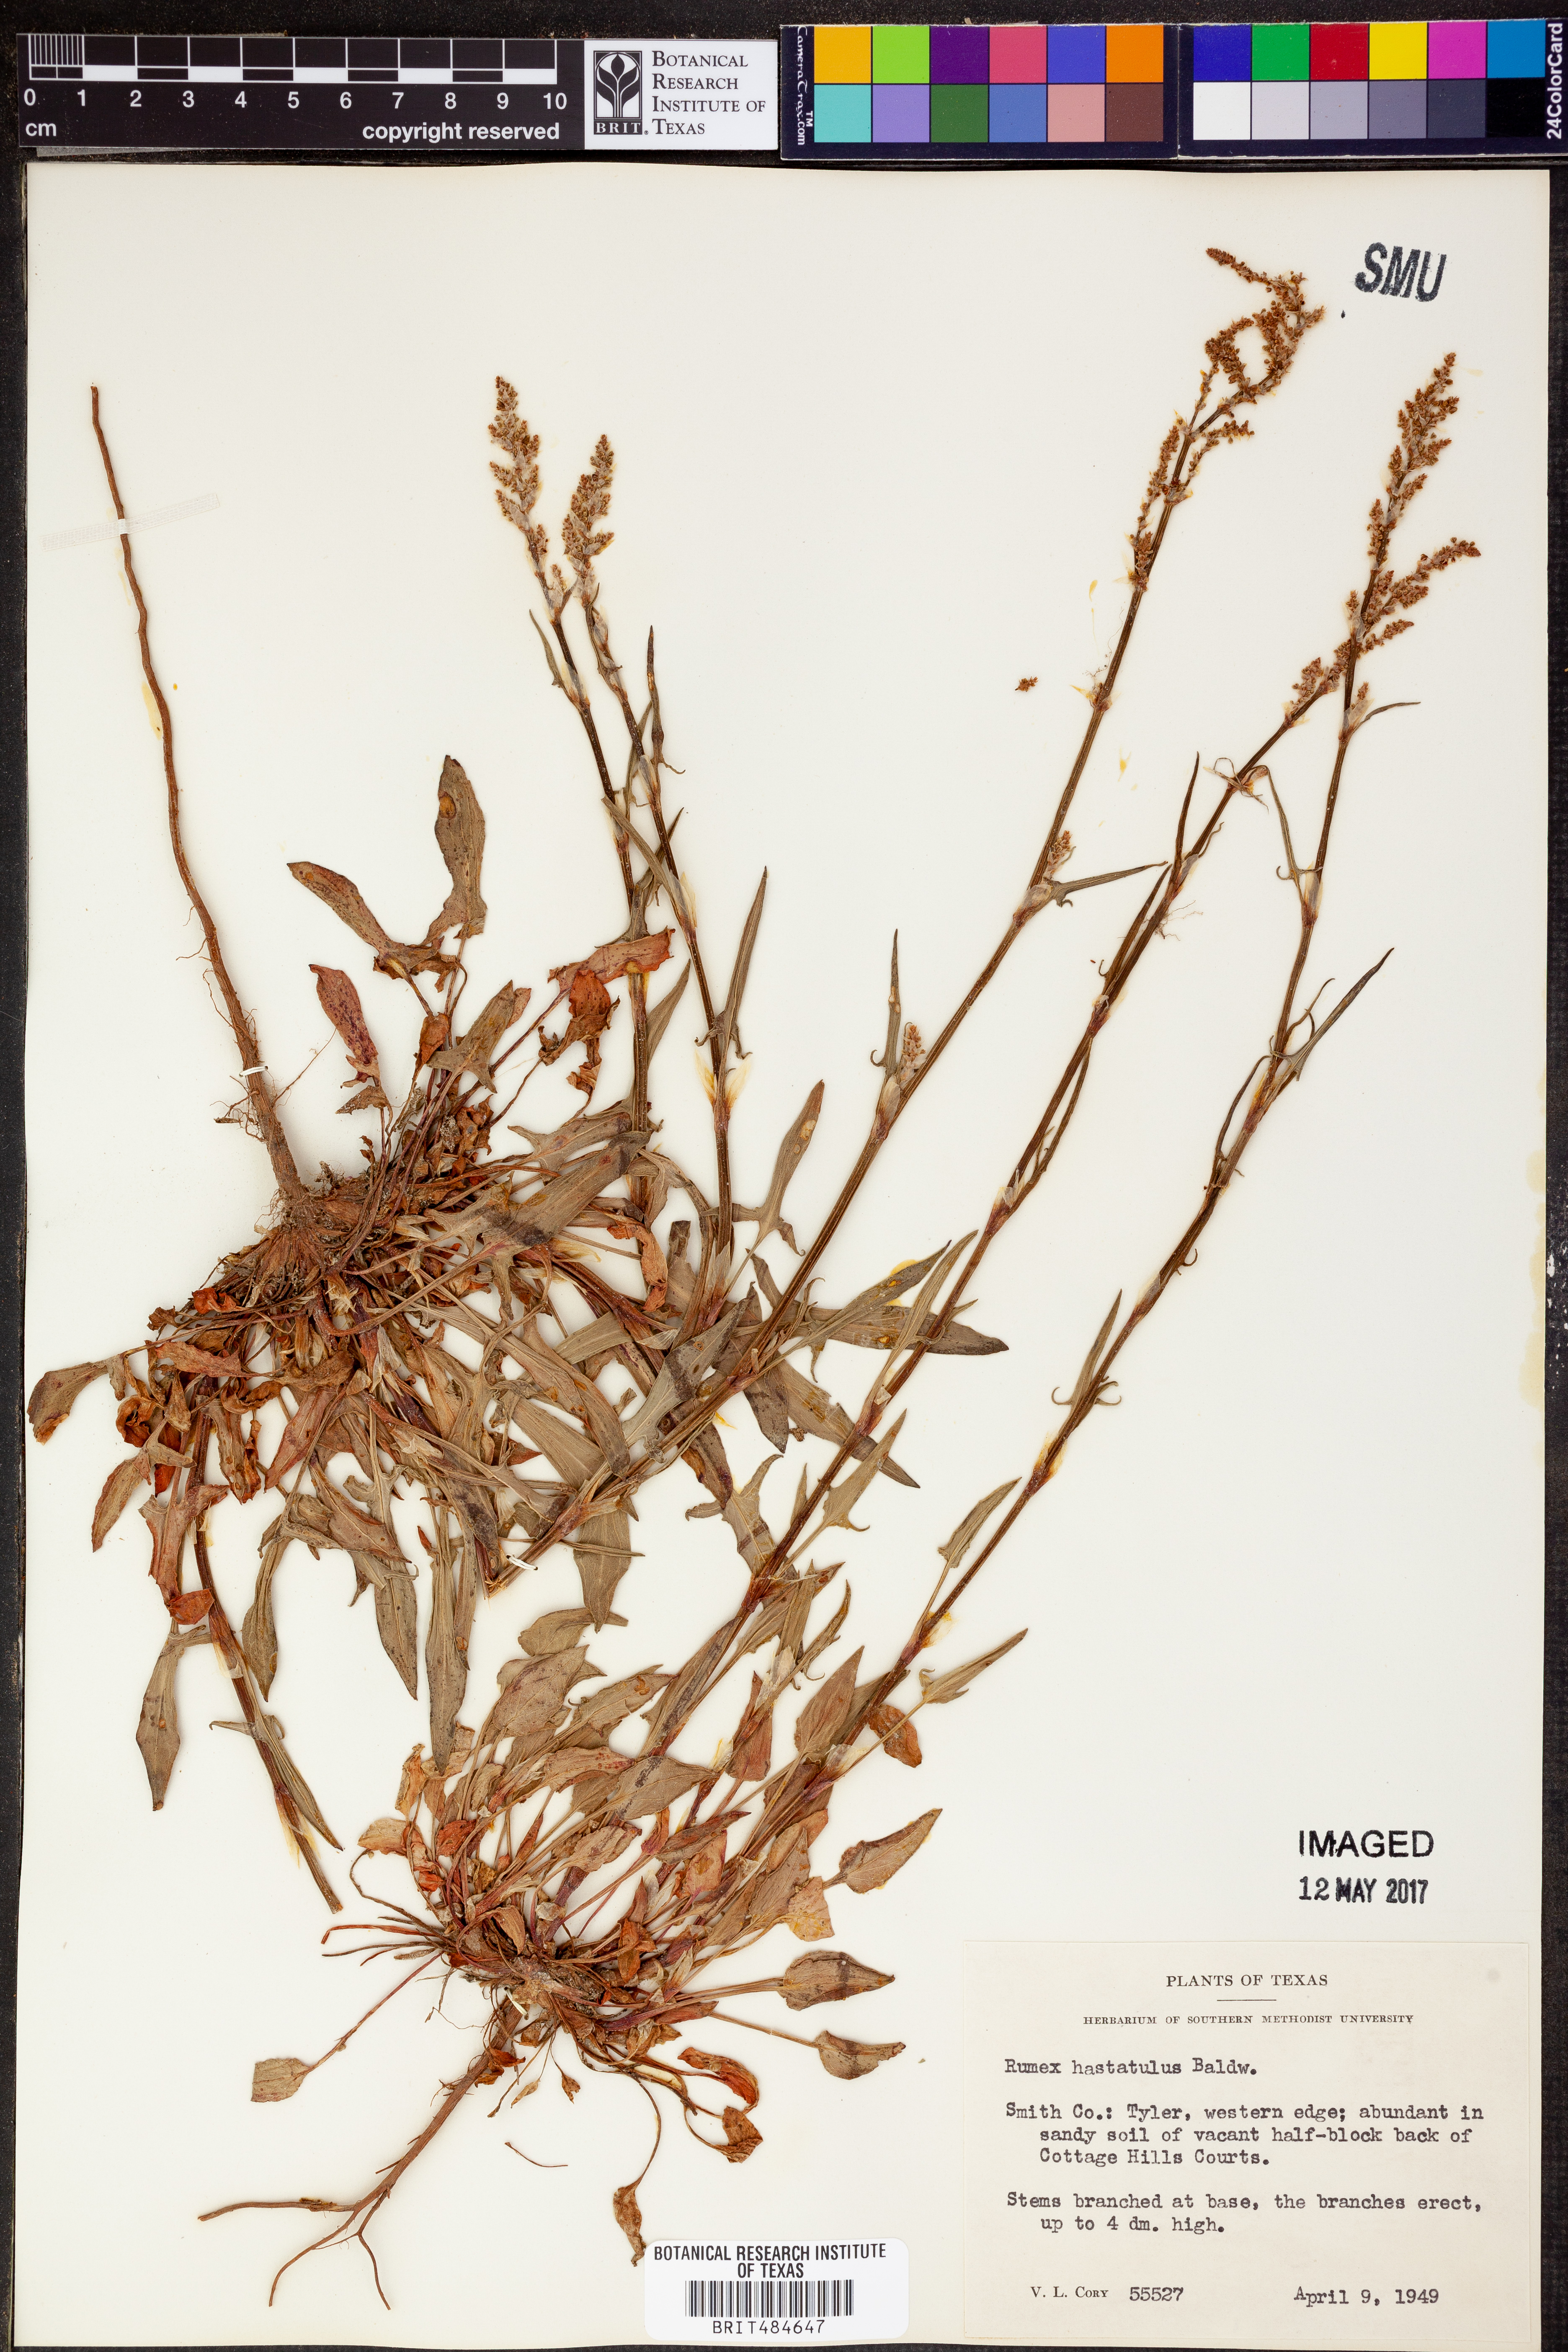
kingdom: Plantae
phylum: Tracheophyta
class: Magnoliopsida
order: Caryophyllales
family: Polygonaceae
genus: Rumex
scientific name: Rumex hastatulus
